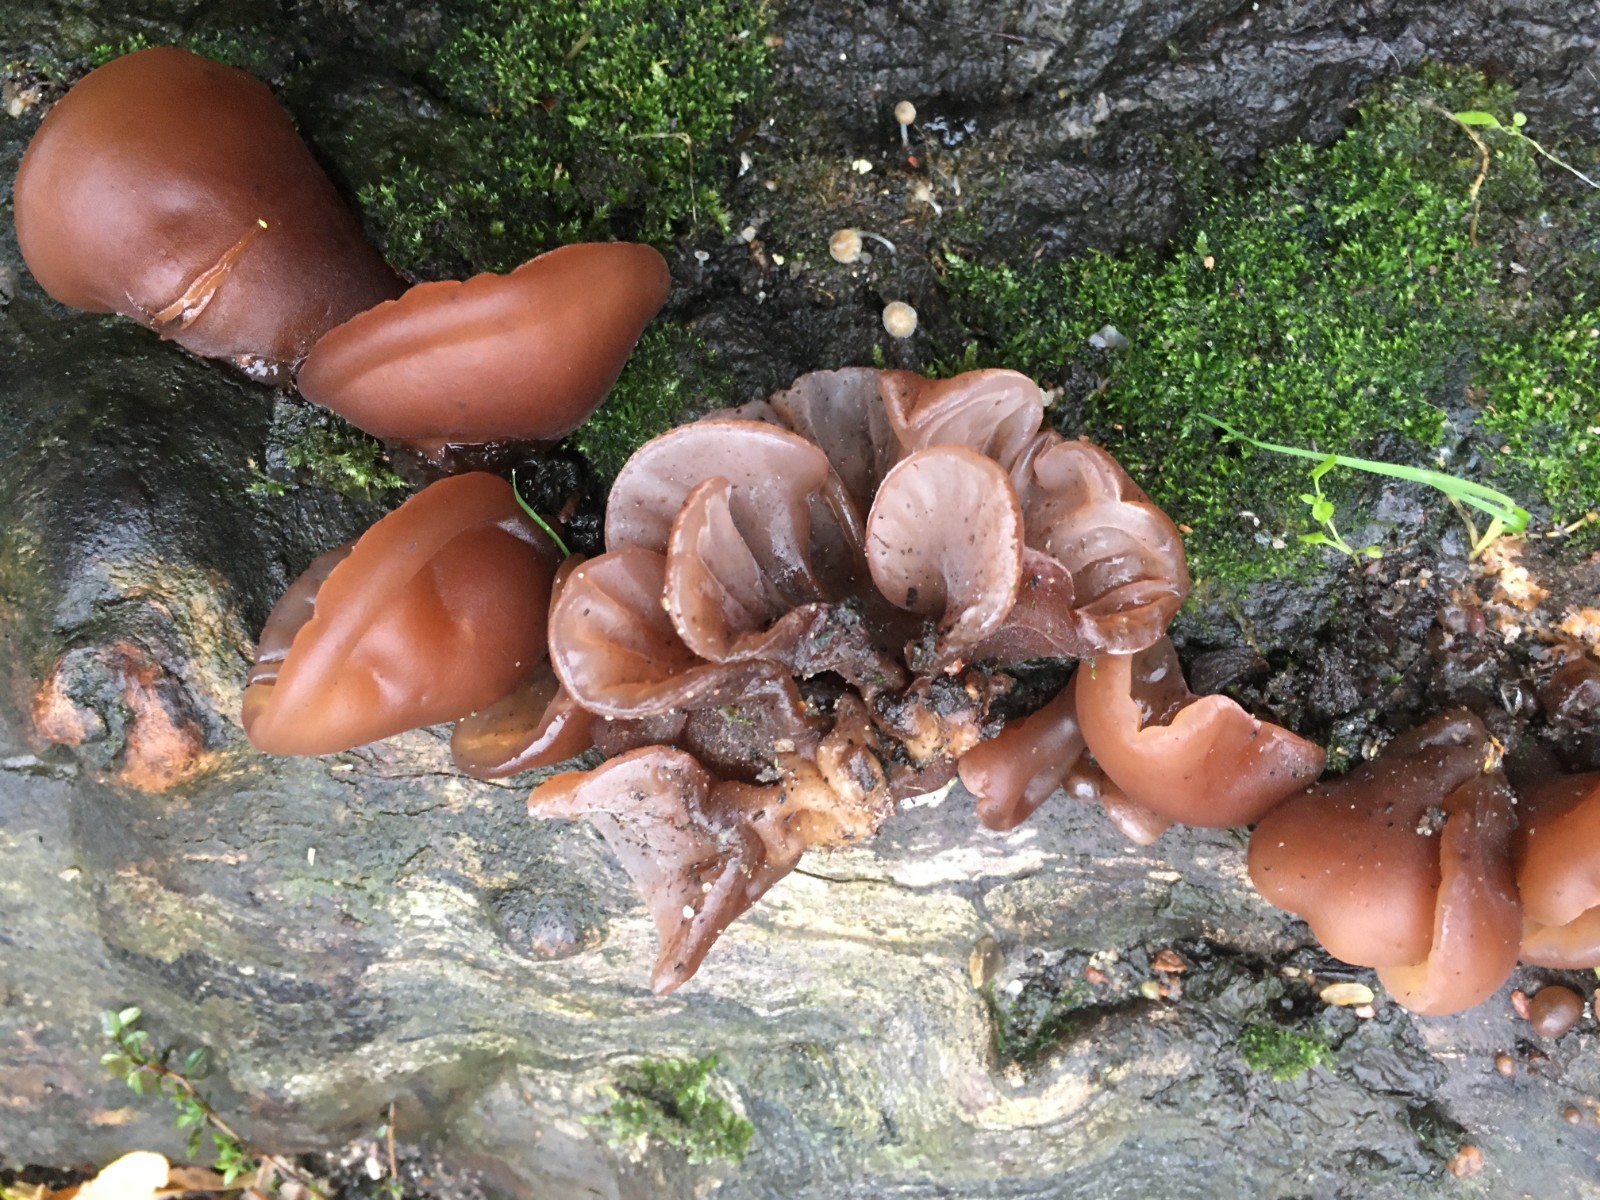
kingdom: Fungi
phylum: Basidiomycota
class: Agaricomycetes
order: Auriculariales
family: Auriculariaceae
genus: Auricularia
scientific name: Auricularia auricula-judae
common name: almindelig judasøre
